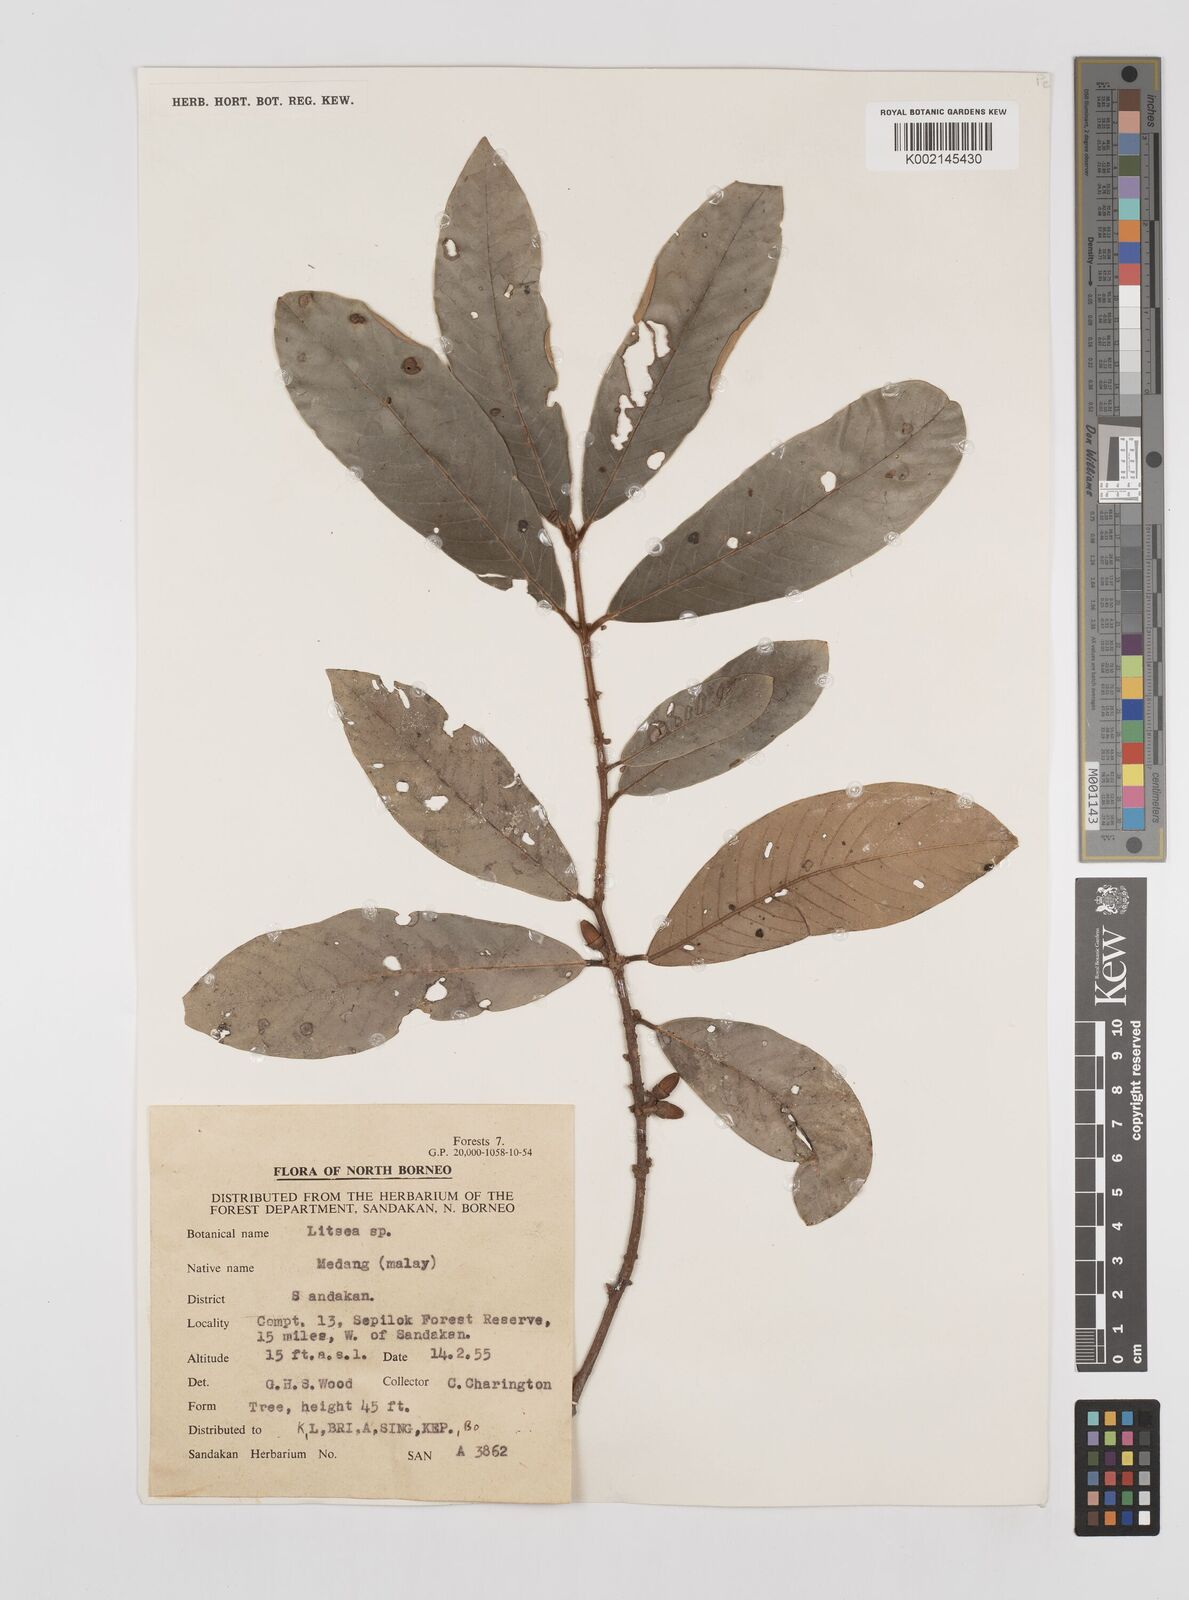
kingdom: Plantae
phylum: Tracheophyta
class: Magnoliopsida
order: Laurales
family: Lauraceae
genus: Litsea
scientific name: Litsea
